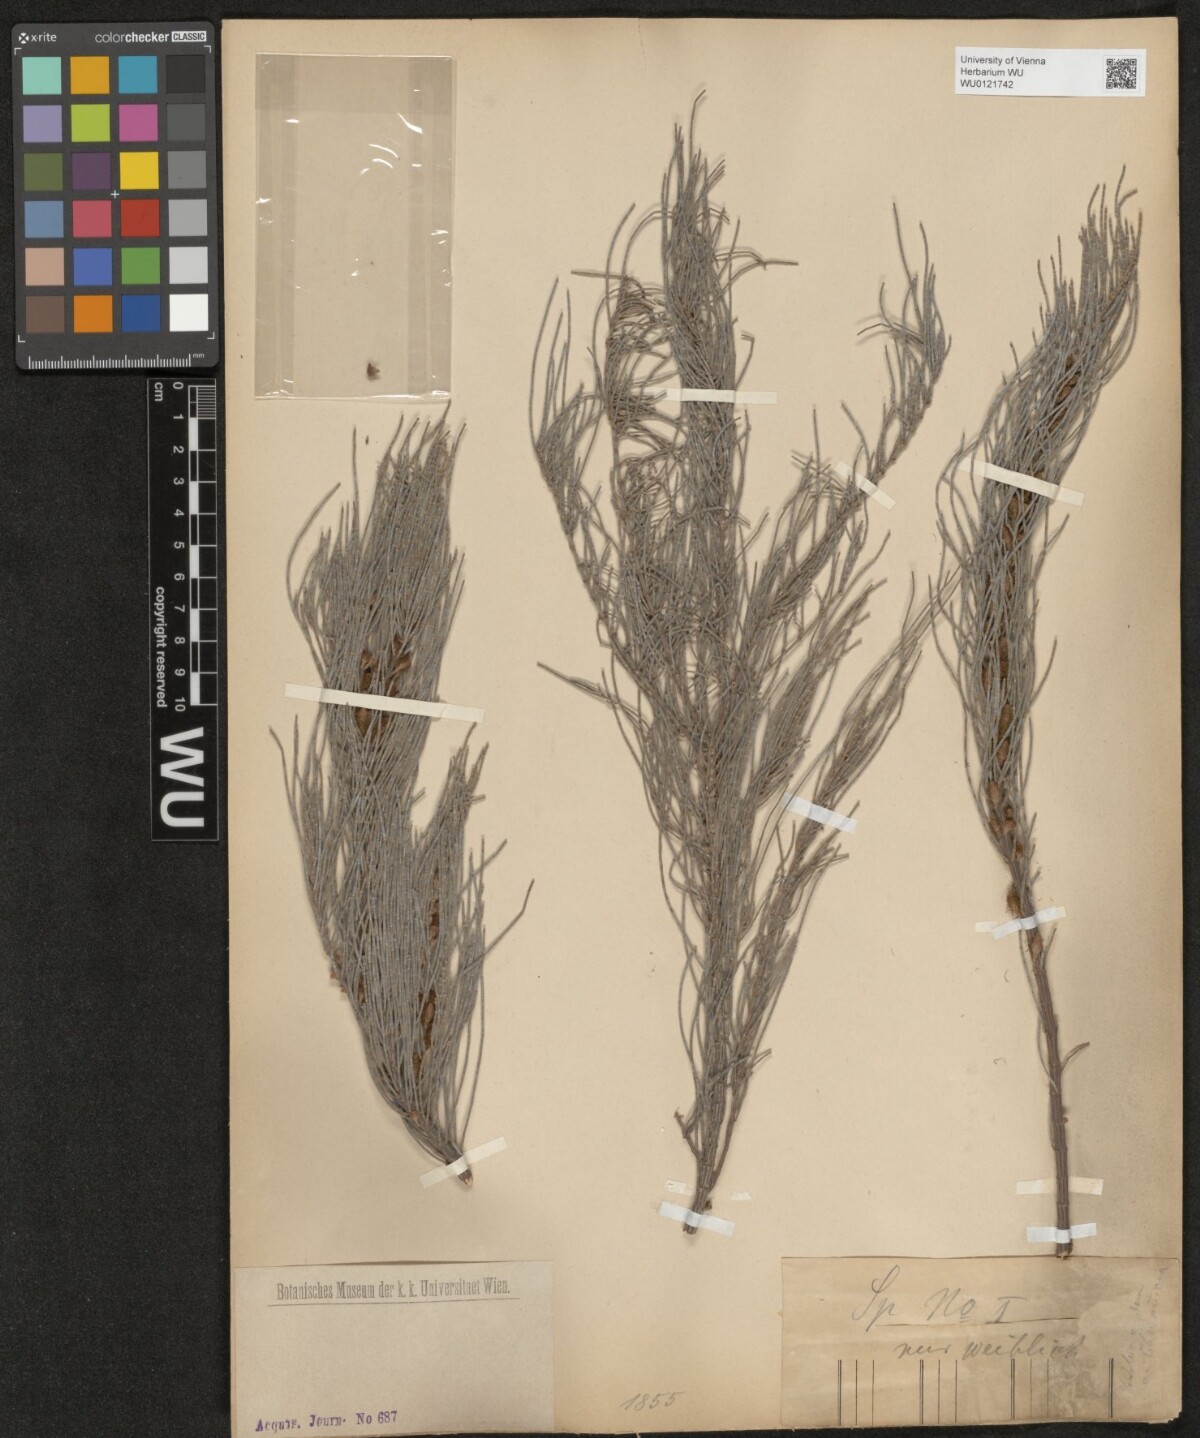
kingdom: Plantae
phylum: Tracheophyta
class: Magnoliopsida
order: Fagales
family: Casuarinaceae
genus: Casuarina
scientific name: Casuarina
